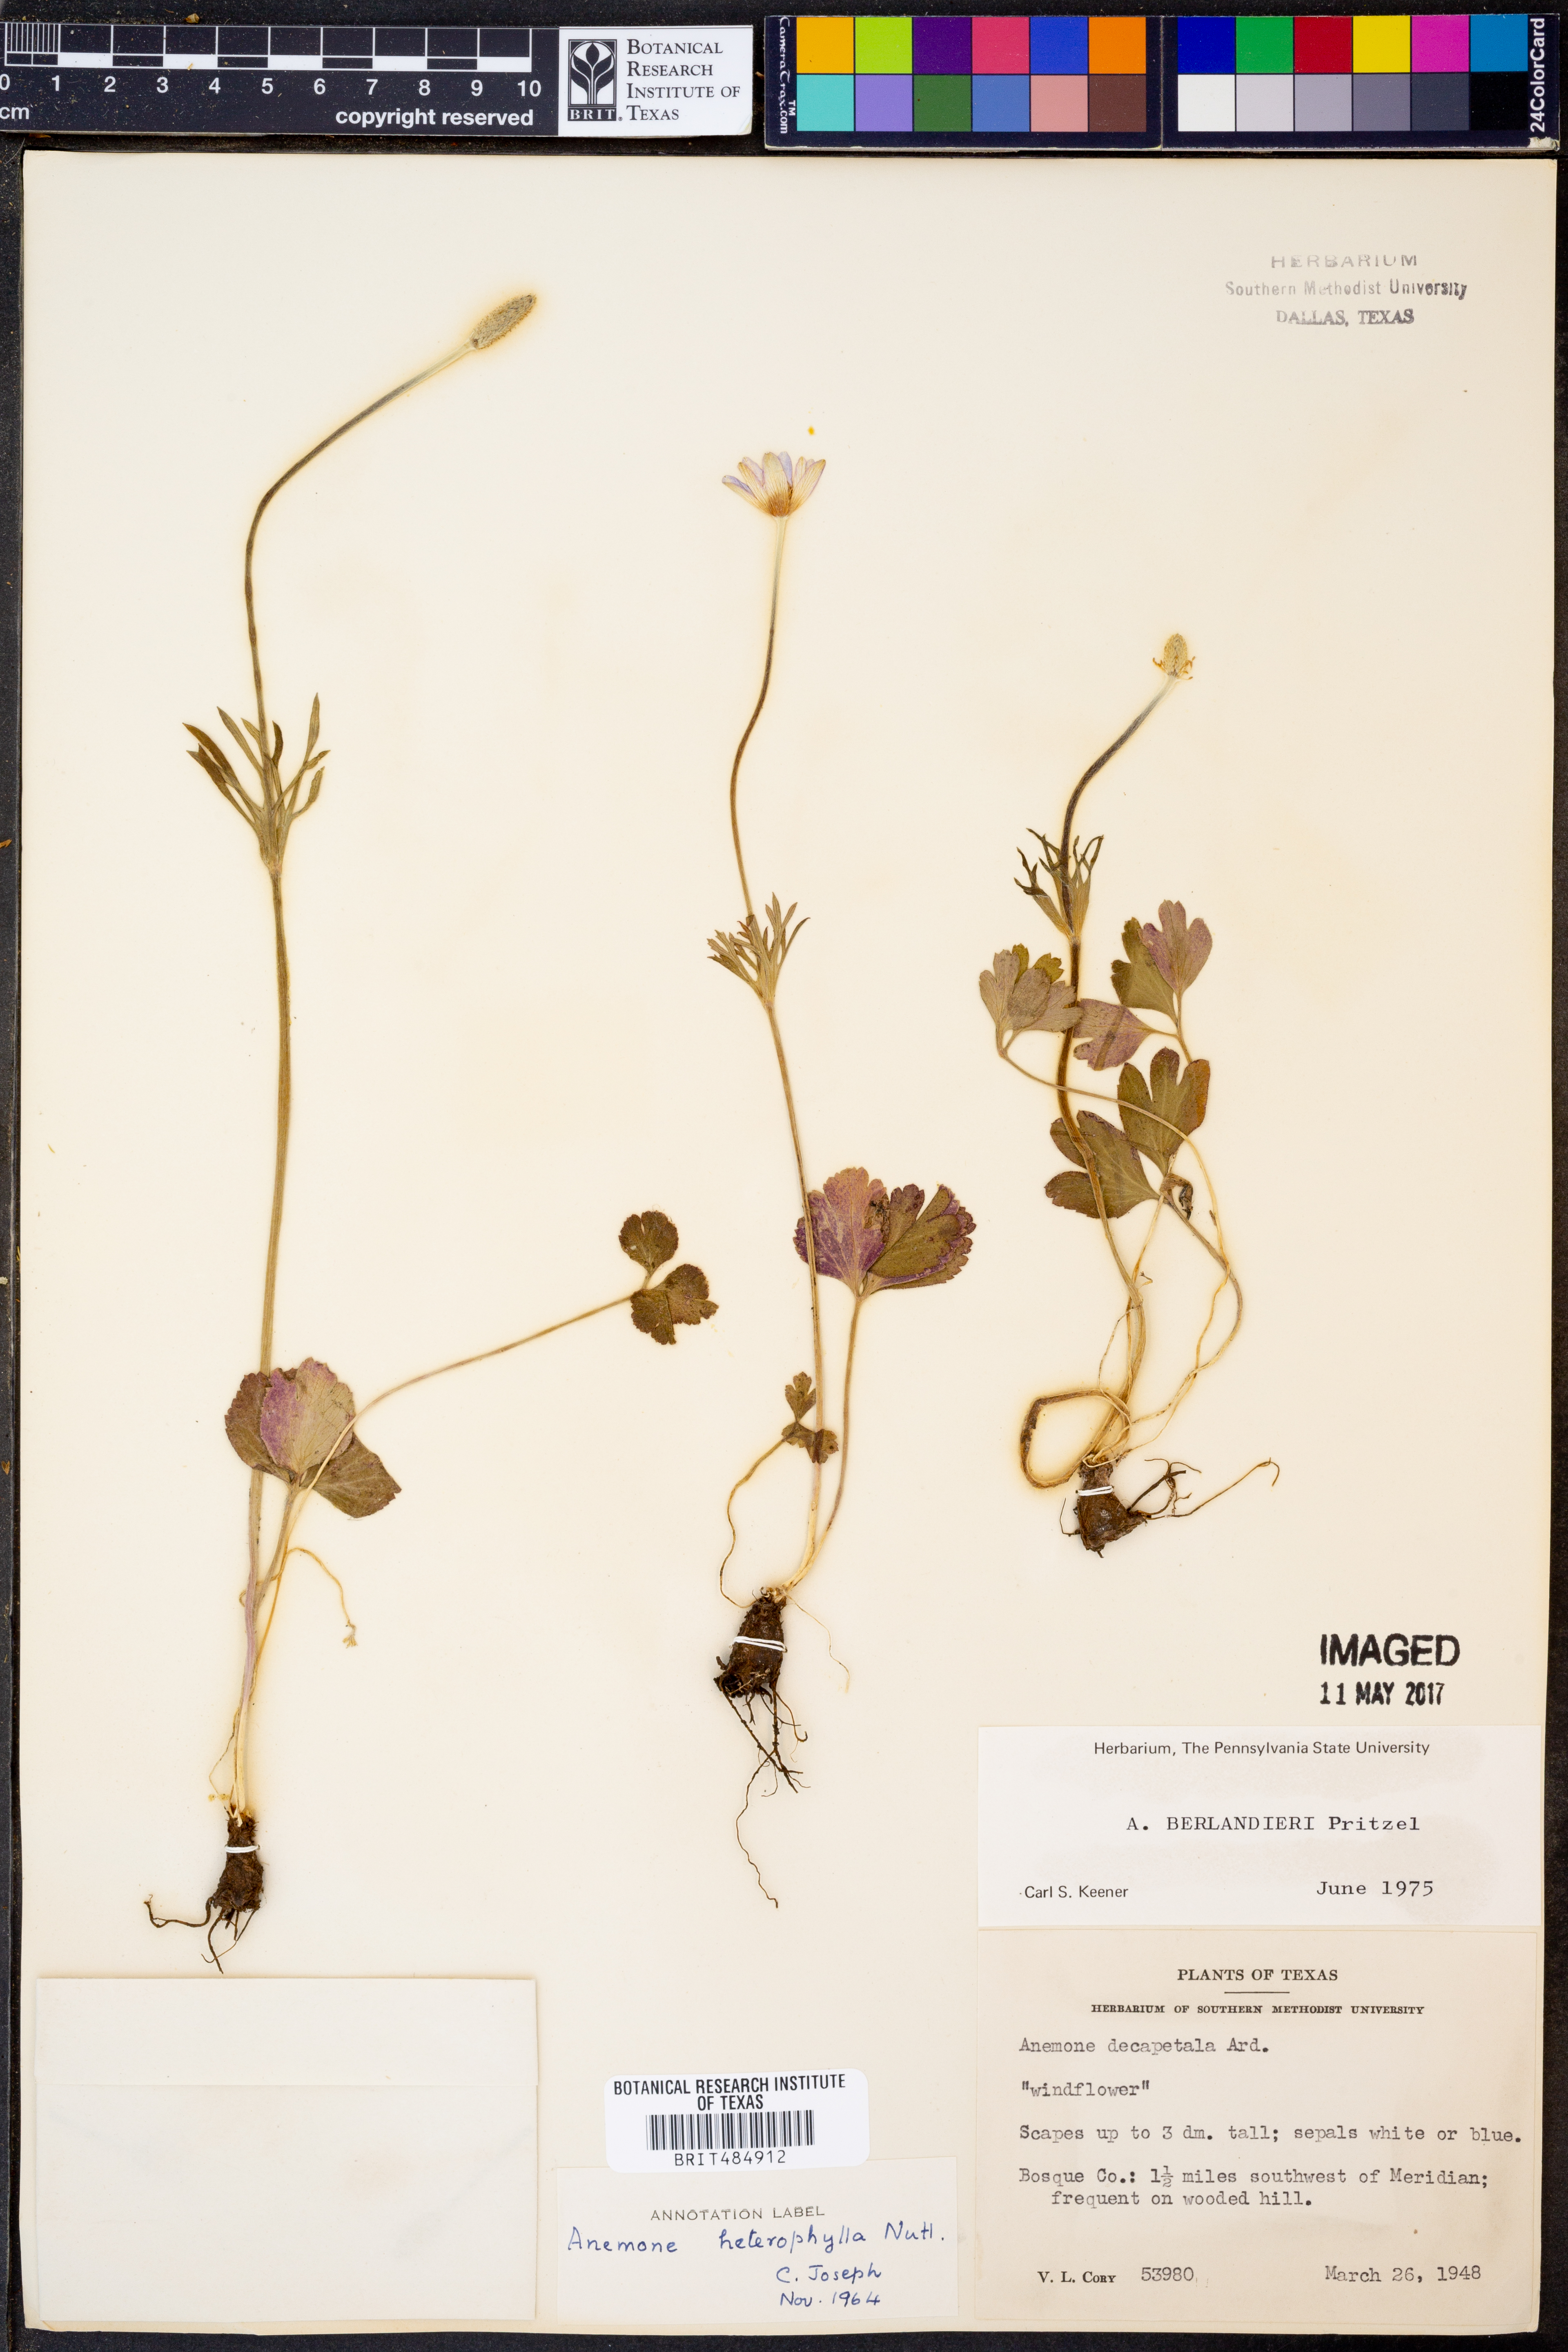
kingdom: Plantae
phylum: Tracheophyta
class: Magnoliopsida
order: Ranunculales
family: Ranunculaceae
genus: Anemone
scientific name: Anemone berlandieri
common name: Ten-petal anemone
